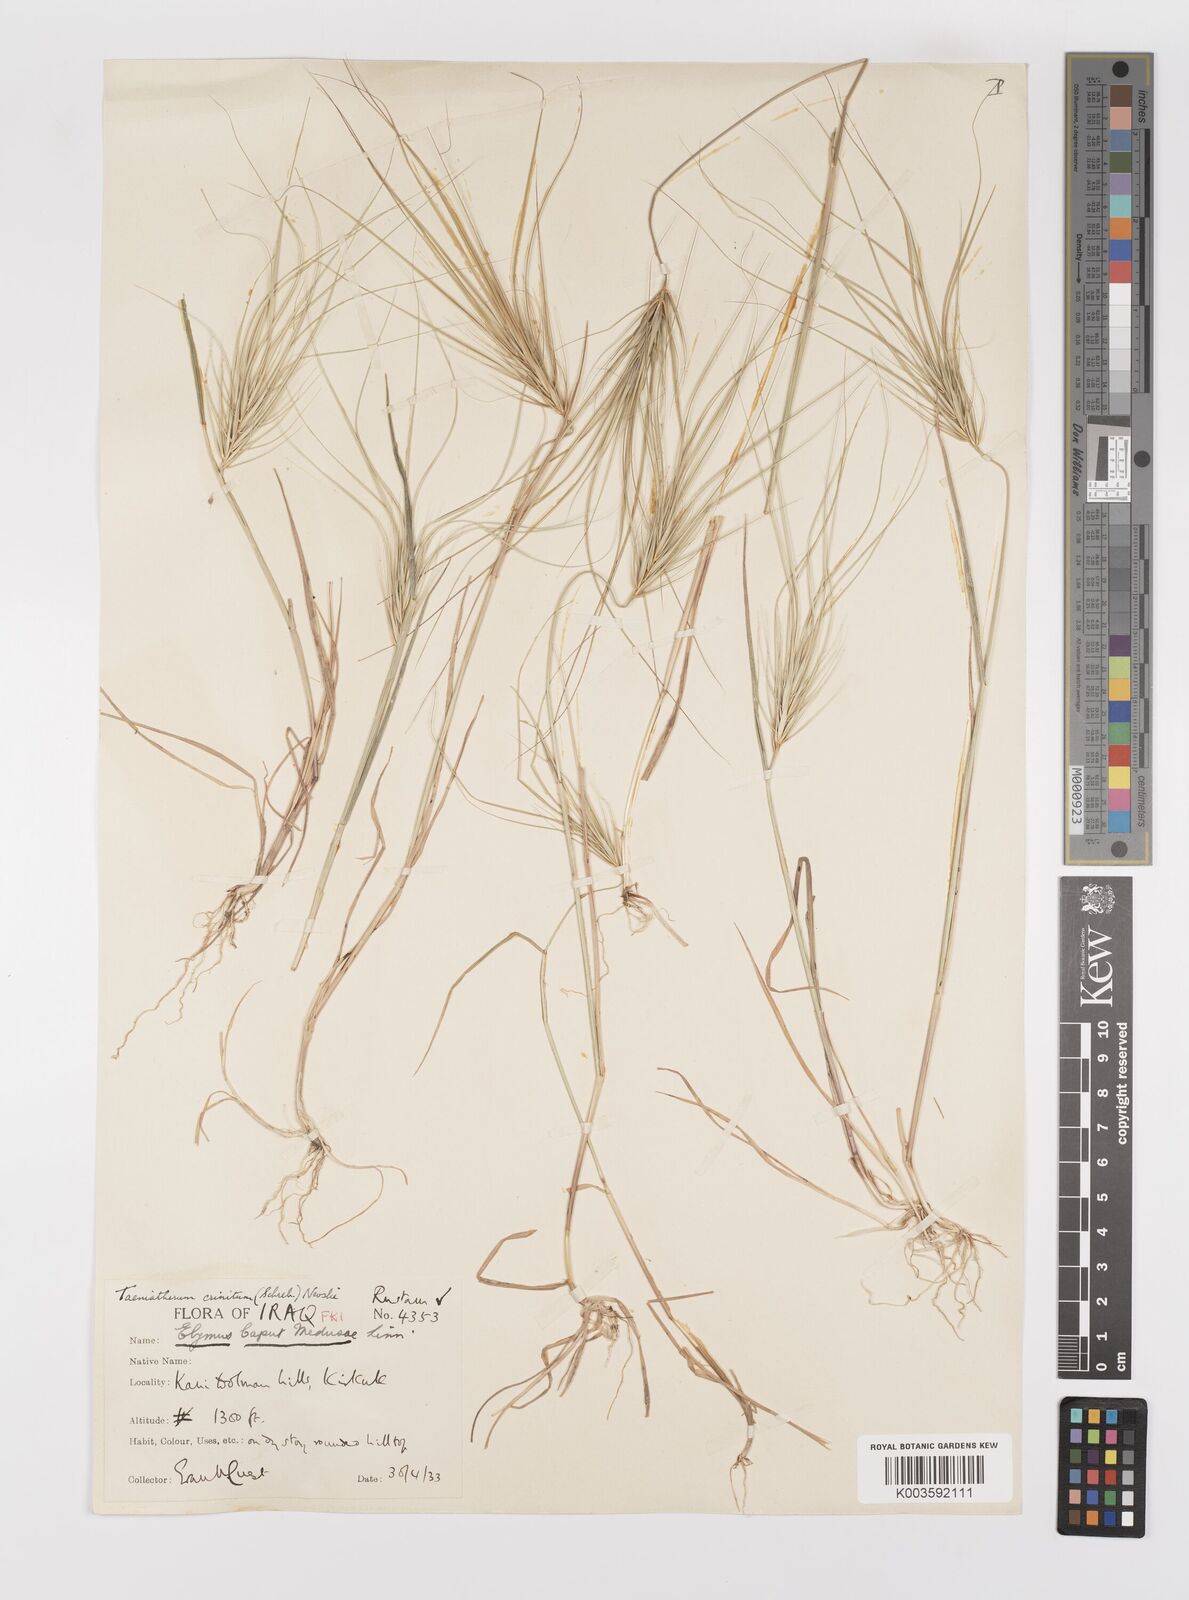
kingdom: Plantae
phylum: Tracheophyta
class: Liliopsida
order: Poales
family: Poaceae
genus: Taeniatherum
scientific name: Taeniatherum caput-medusae
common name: Medusahead
